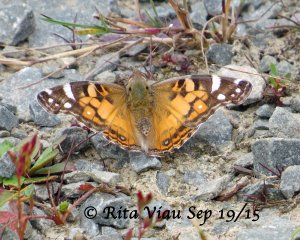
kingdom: Animalia
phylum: Arthropoda
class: Insecta
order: Lepidoptera
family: Nymphalidae
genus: Vanessa
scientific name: Vanessa virginiensis
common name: American Lady
